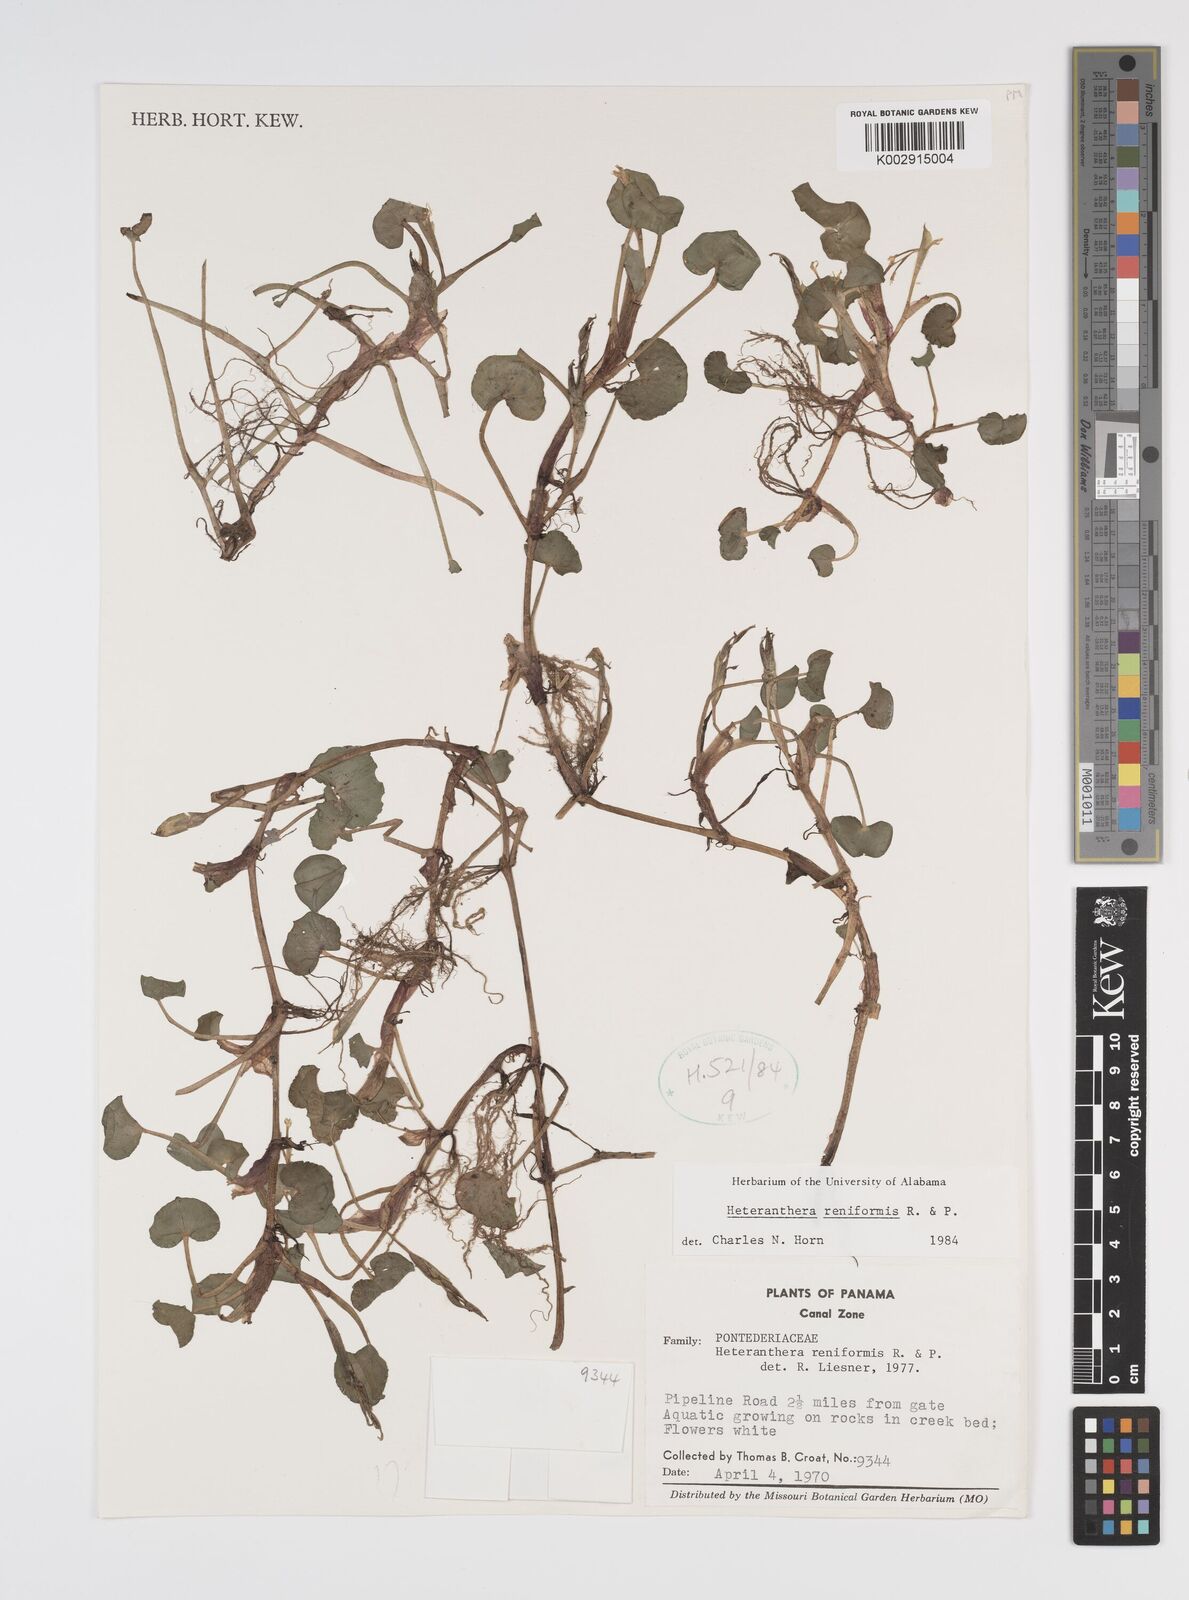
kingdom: Plantae
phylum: Tracheophyta
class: Liliopsida
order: Commelinales
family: Pontederiaceae
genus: Heteranthera
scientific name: Heteranthera reniformis
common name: Kidneyleaf mudplantain
